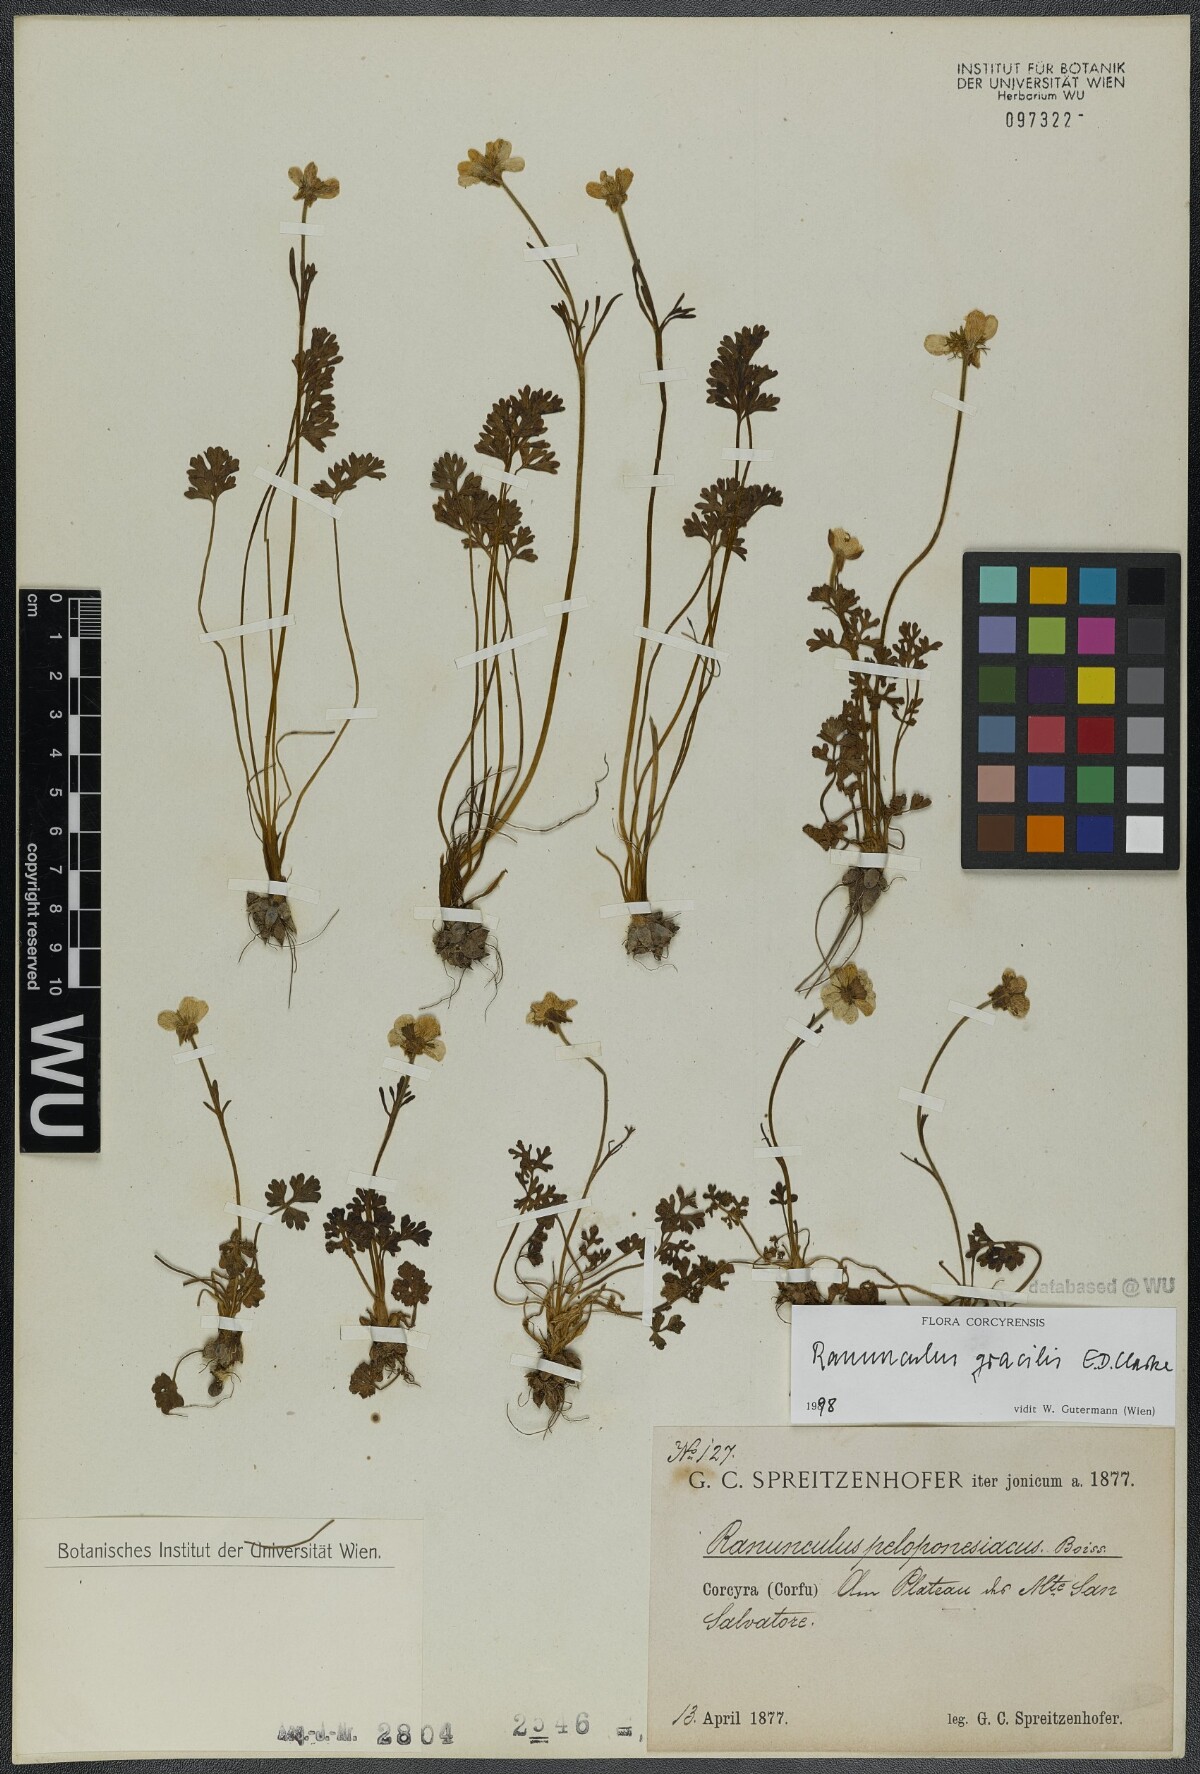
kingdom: Plantae
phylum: Tracheophyta
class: Magnoliopsida
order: Ranunculales
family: Ranunculaceae
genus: Ranunculus
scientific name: Ranunculus gracilis
